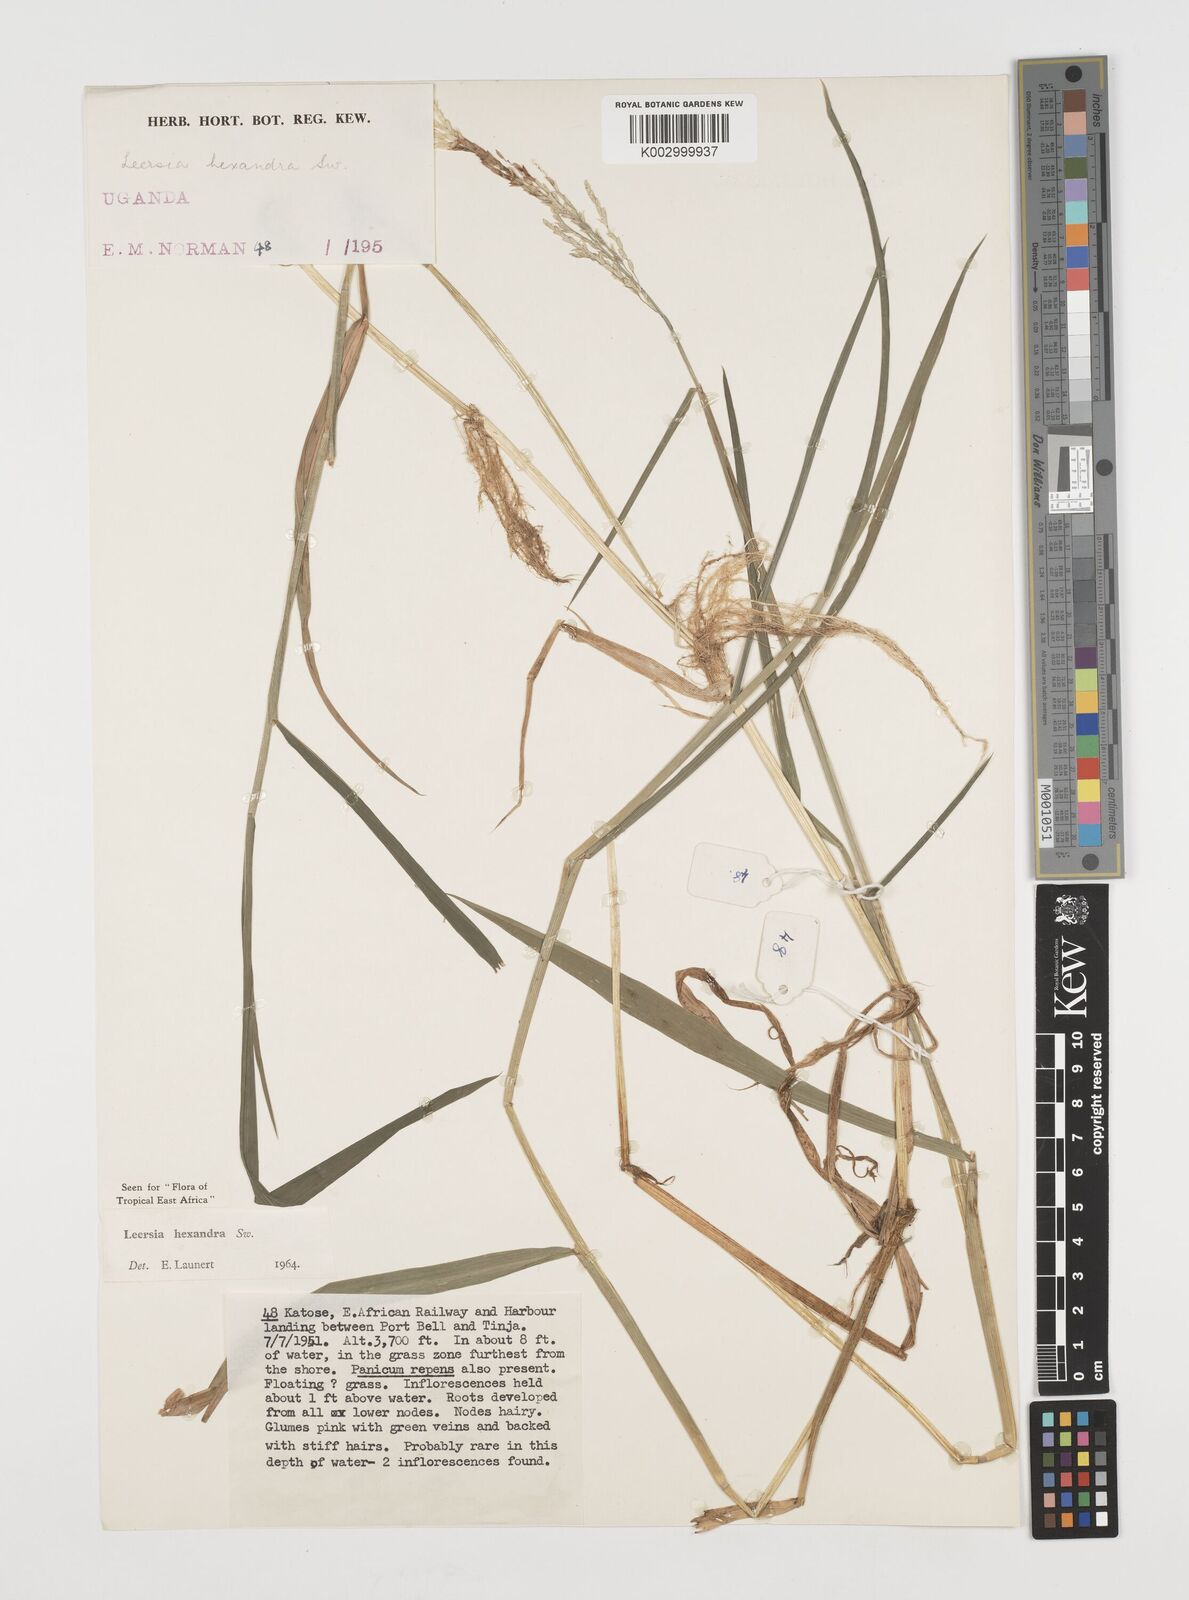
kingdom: Plantae
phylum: Tracheophyta
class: Liliopsida
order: Poales
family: Poaceae
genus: Leersia
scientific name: Leersia hexandra
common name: Southern cut grass
